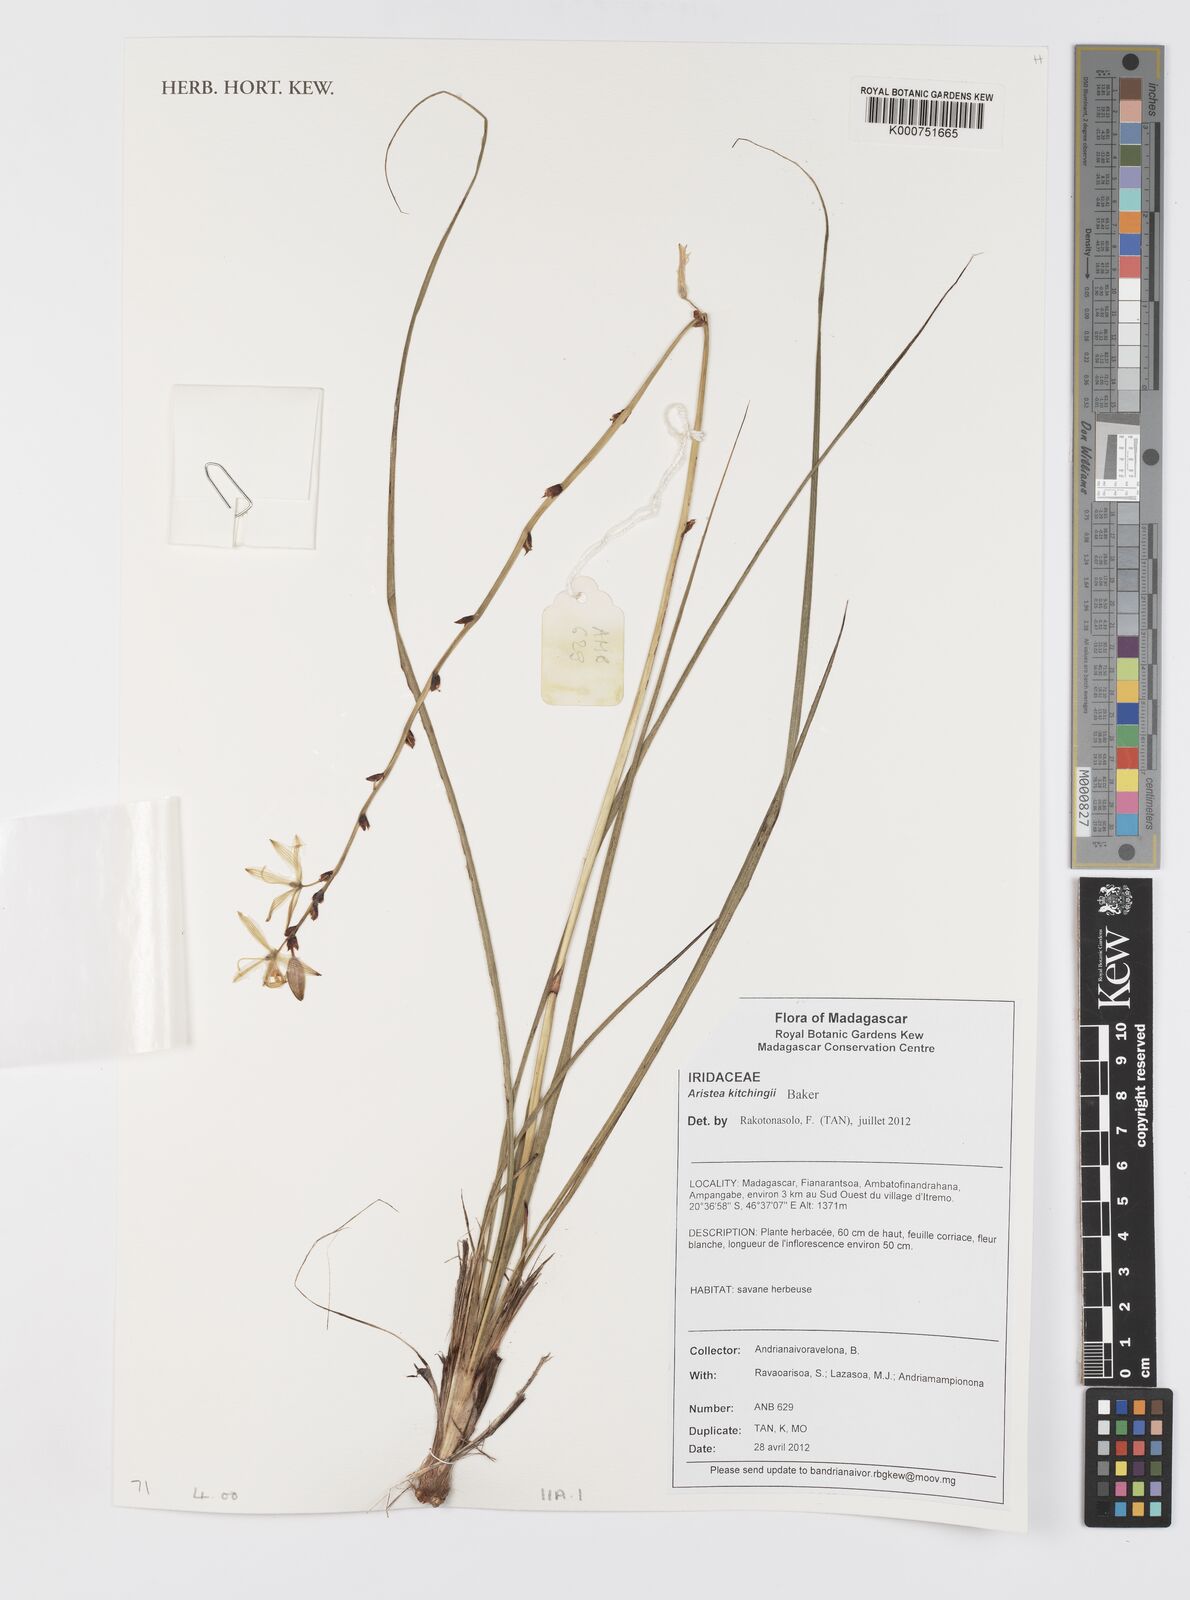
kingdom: Plantae
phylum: Tracheophyta
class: Liliopsida
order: Asparagales
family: Iridaceae
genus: Aristea
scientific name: Aristea kitchingii
